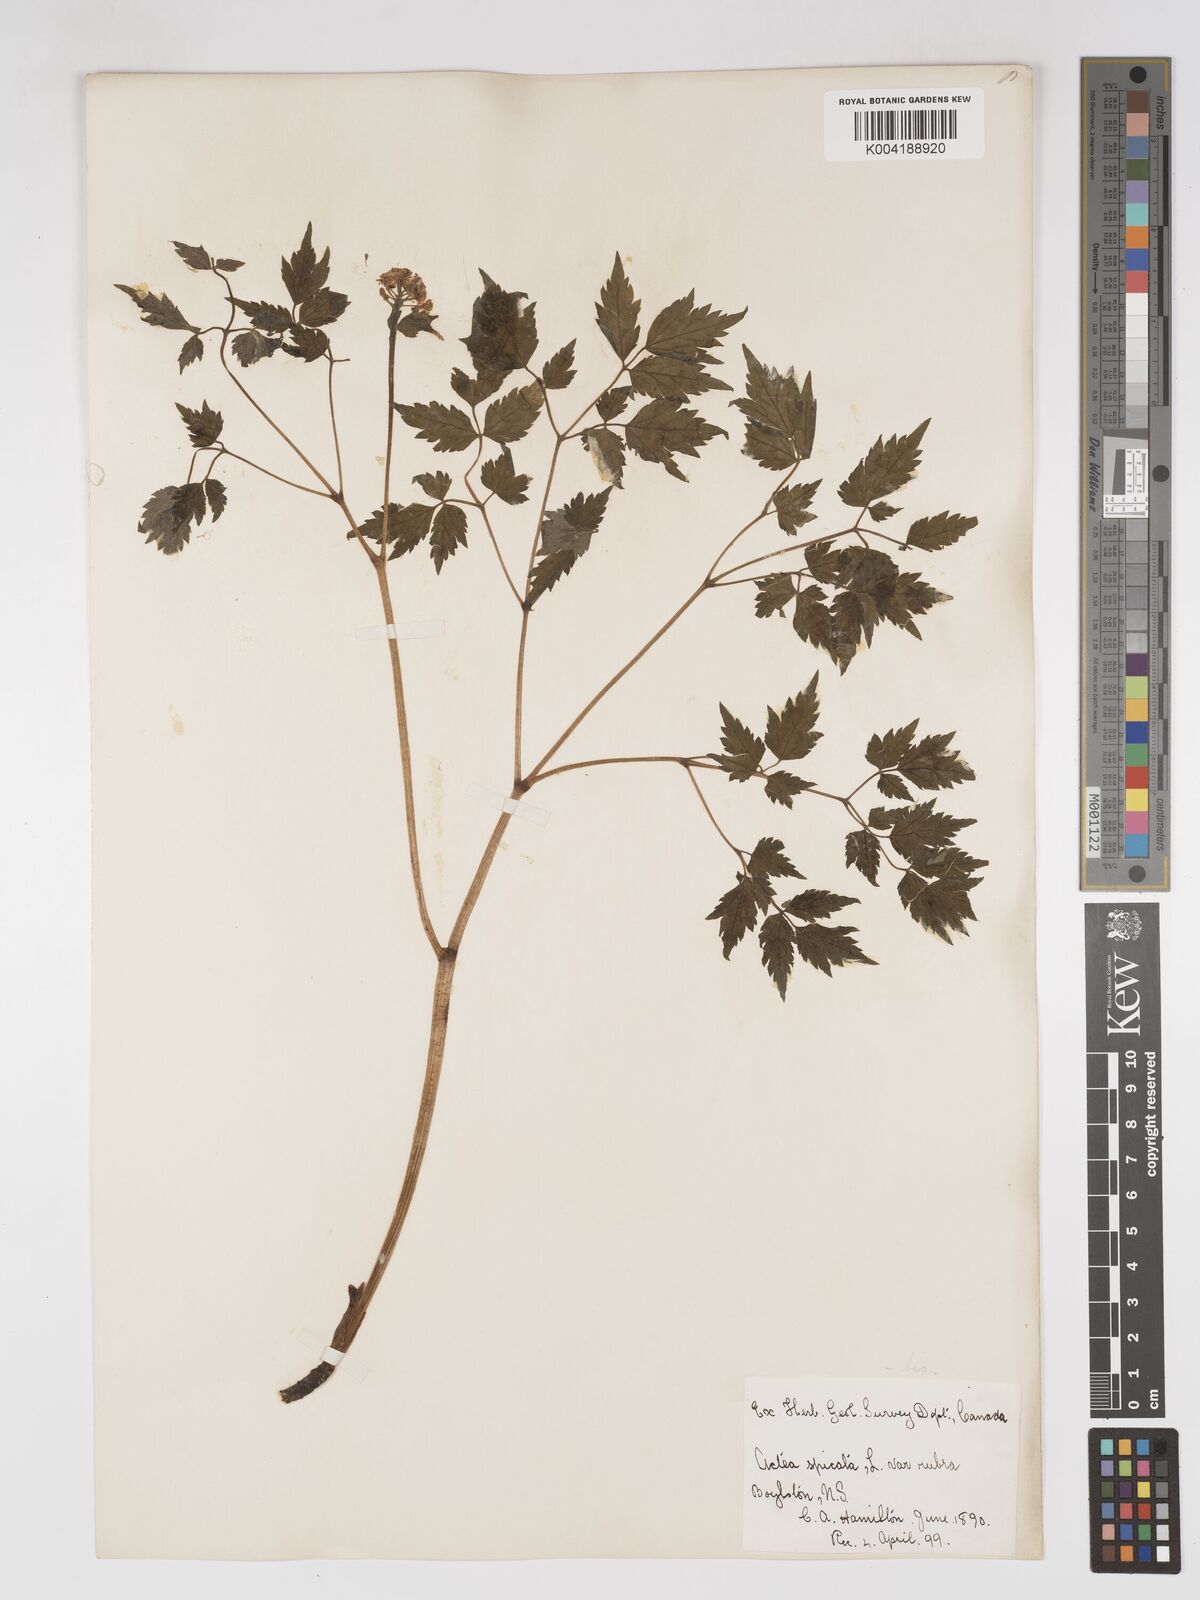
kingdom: Plantae
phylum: Tracheophyta
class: Magnoliopsida
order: Ranunculales
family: Ranunculaceae
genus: Actaea
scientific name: Actaea rubra
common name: Red baneberry
